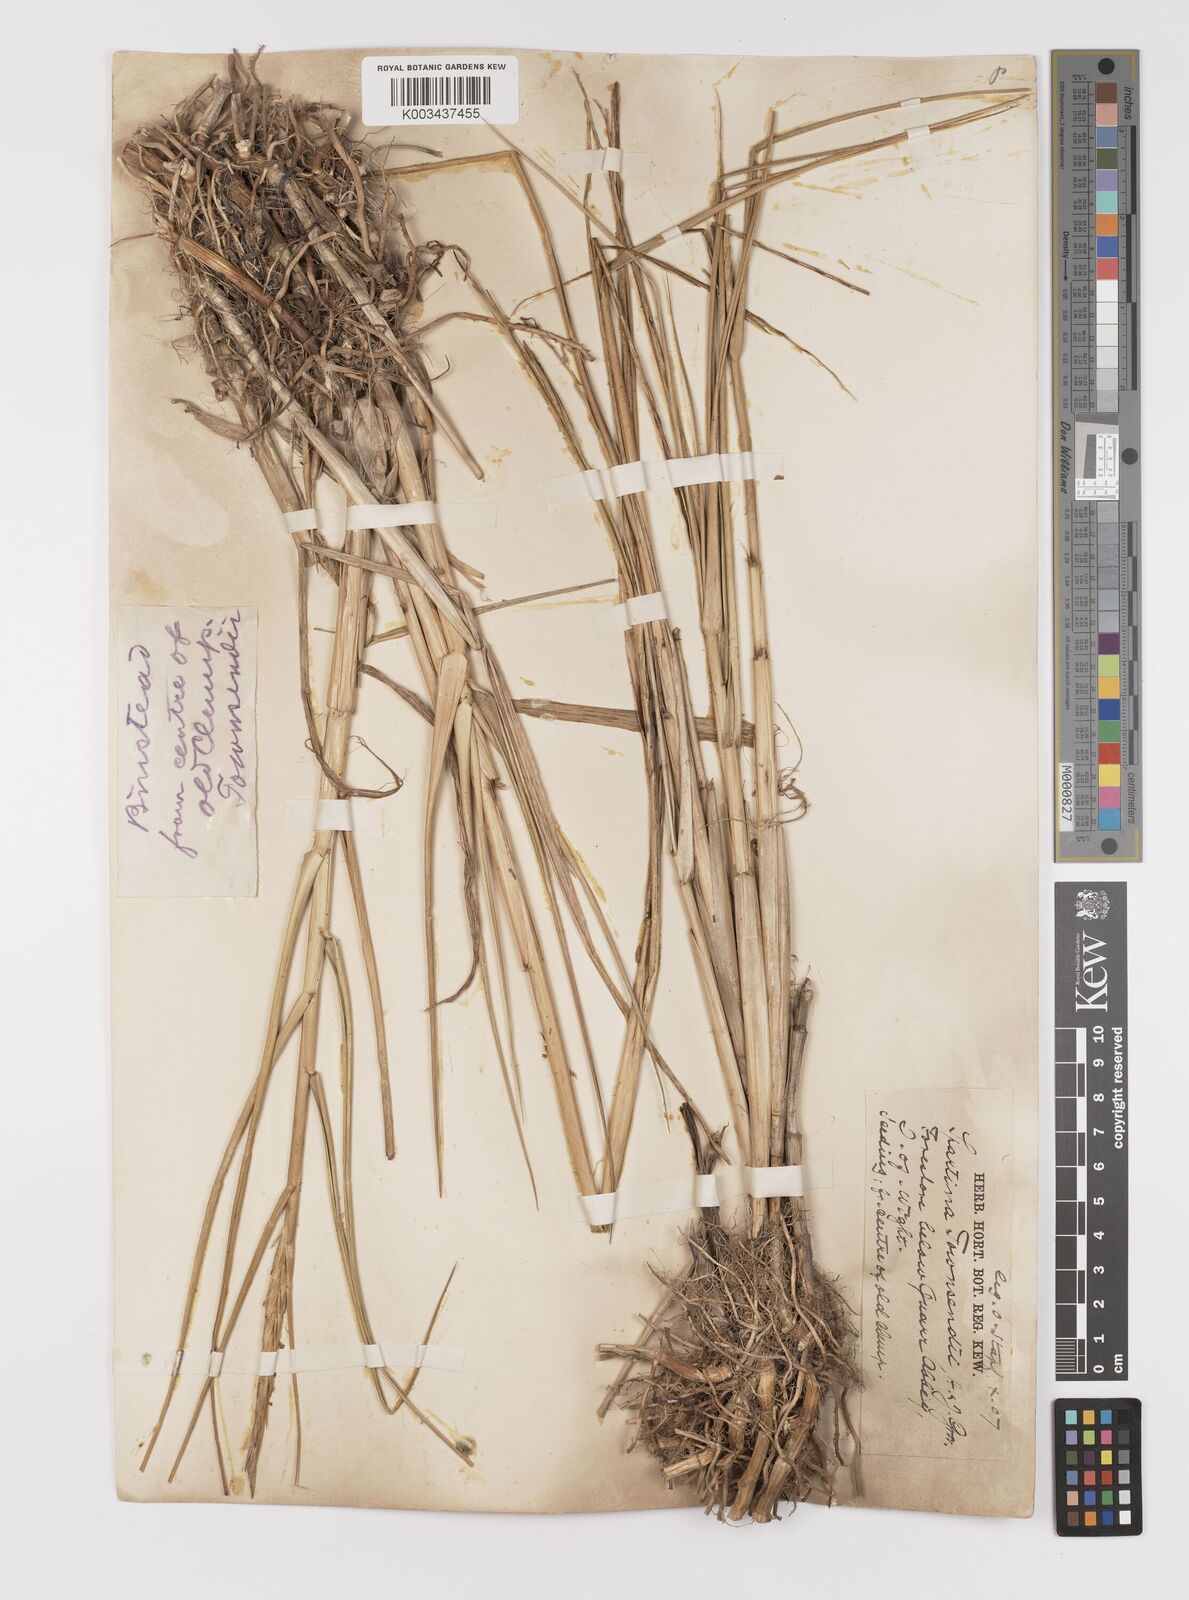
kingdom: Plantae
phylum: Tracheophyta
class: Liliopsida
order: Poales
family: Poaceae
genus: Sporobolus
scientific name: Sporobolus anglicus
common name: English cordgrass
